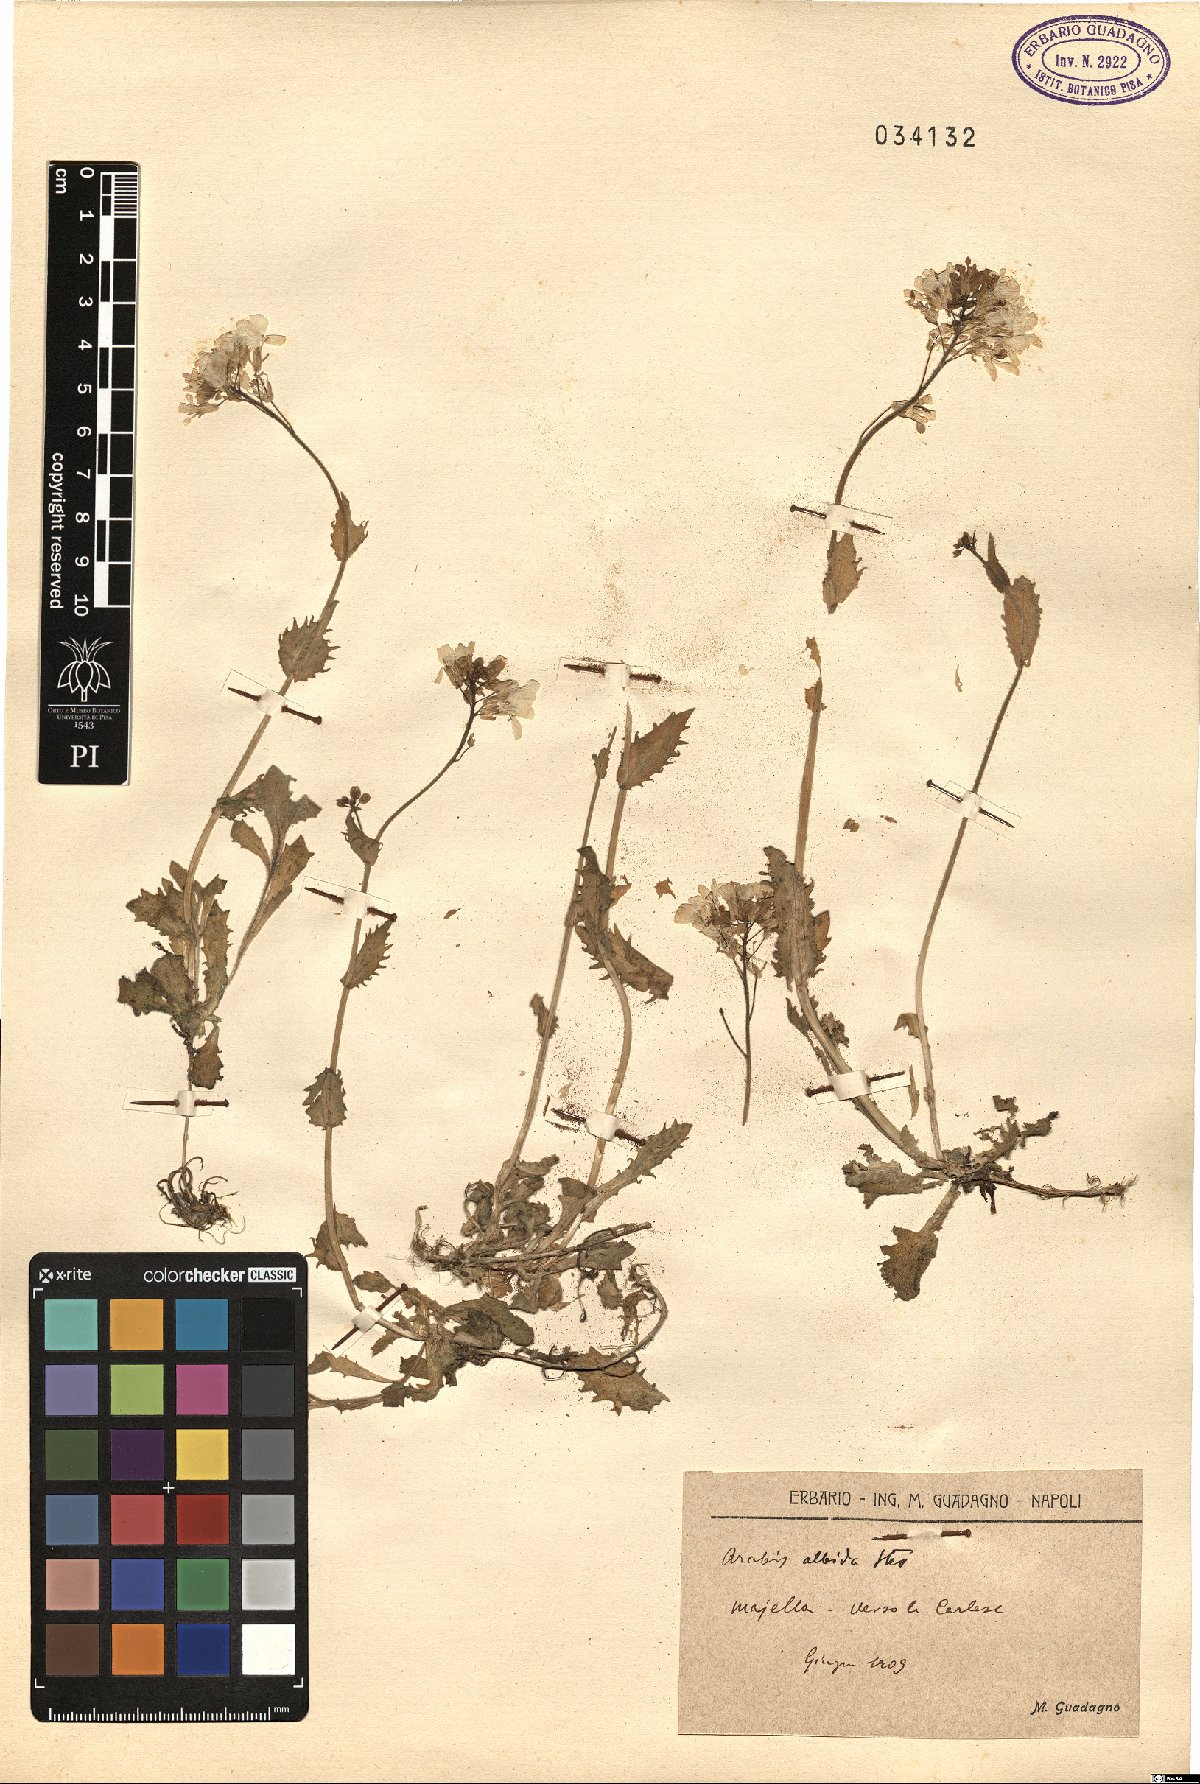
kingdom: Plantae
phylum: Tracheophyta
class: Magnoliopsida
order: Brassicales
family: Brassicaceae
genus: Arabis
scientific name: Arabis caucasica
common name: Gray rockcress
